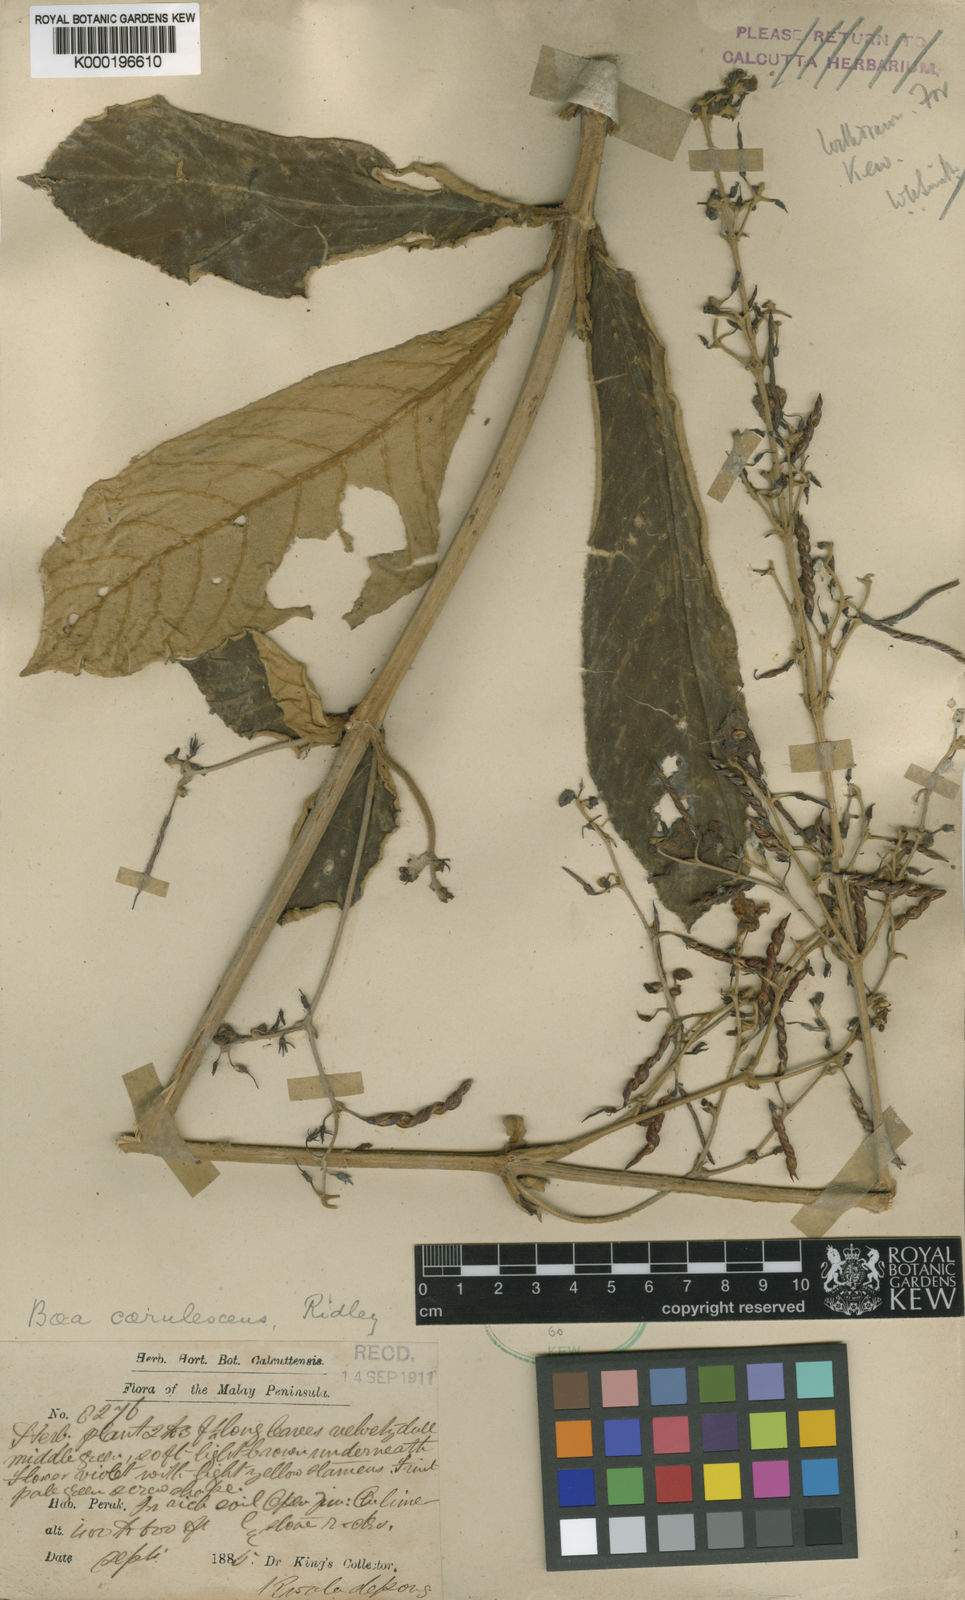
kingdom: Plantae
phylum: Tracheophyta
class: Magnoliopsida
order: Lamiales
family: Gesneriaceae
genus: Paraboea
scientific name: Paraboea caerulescens
